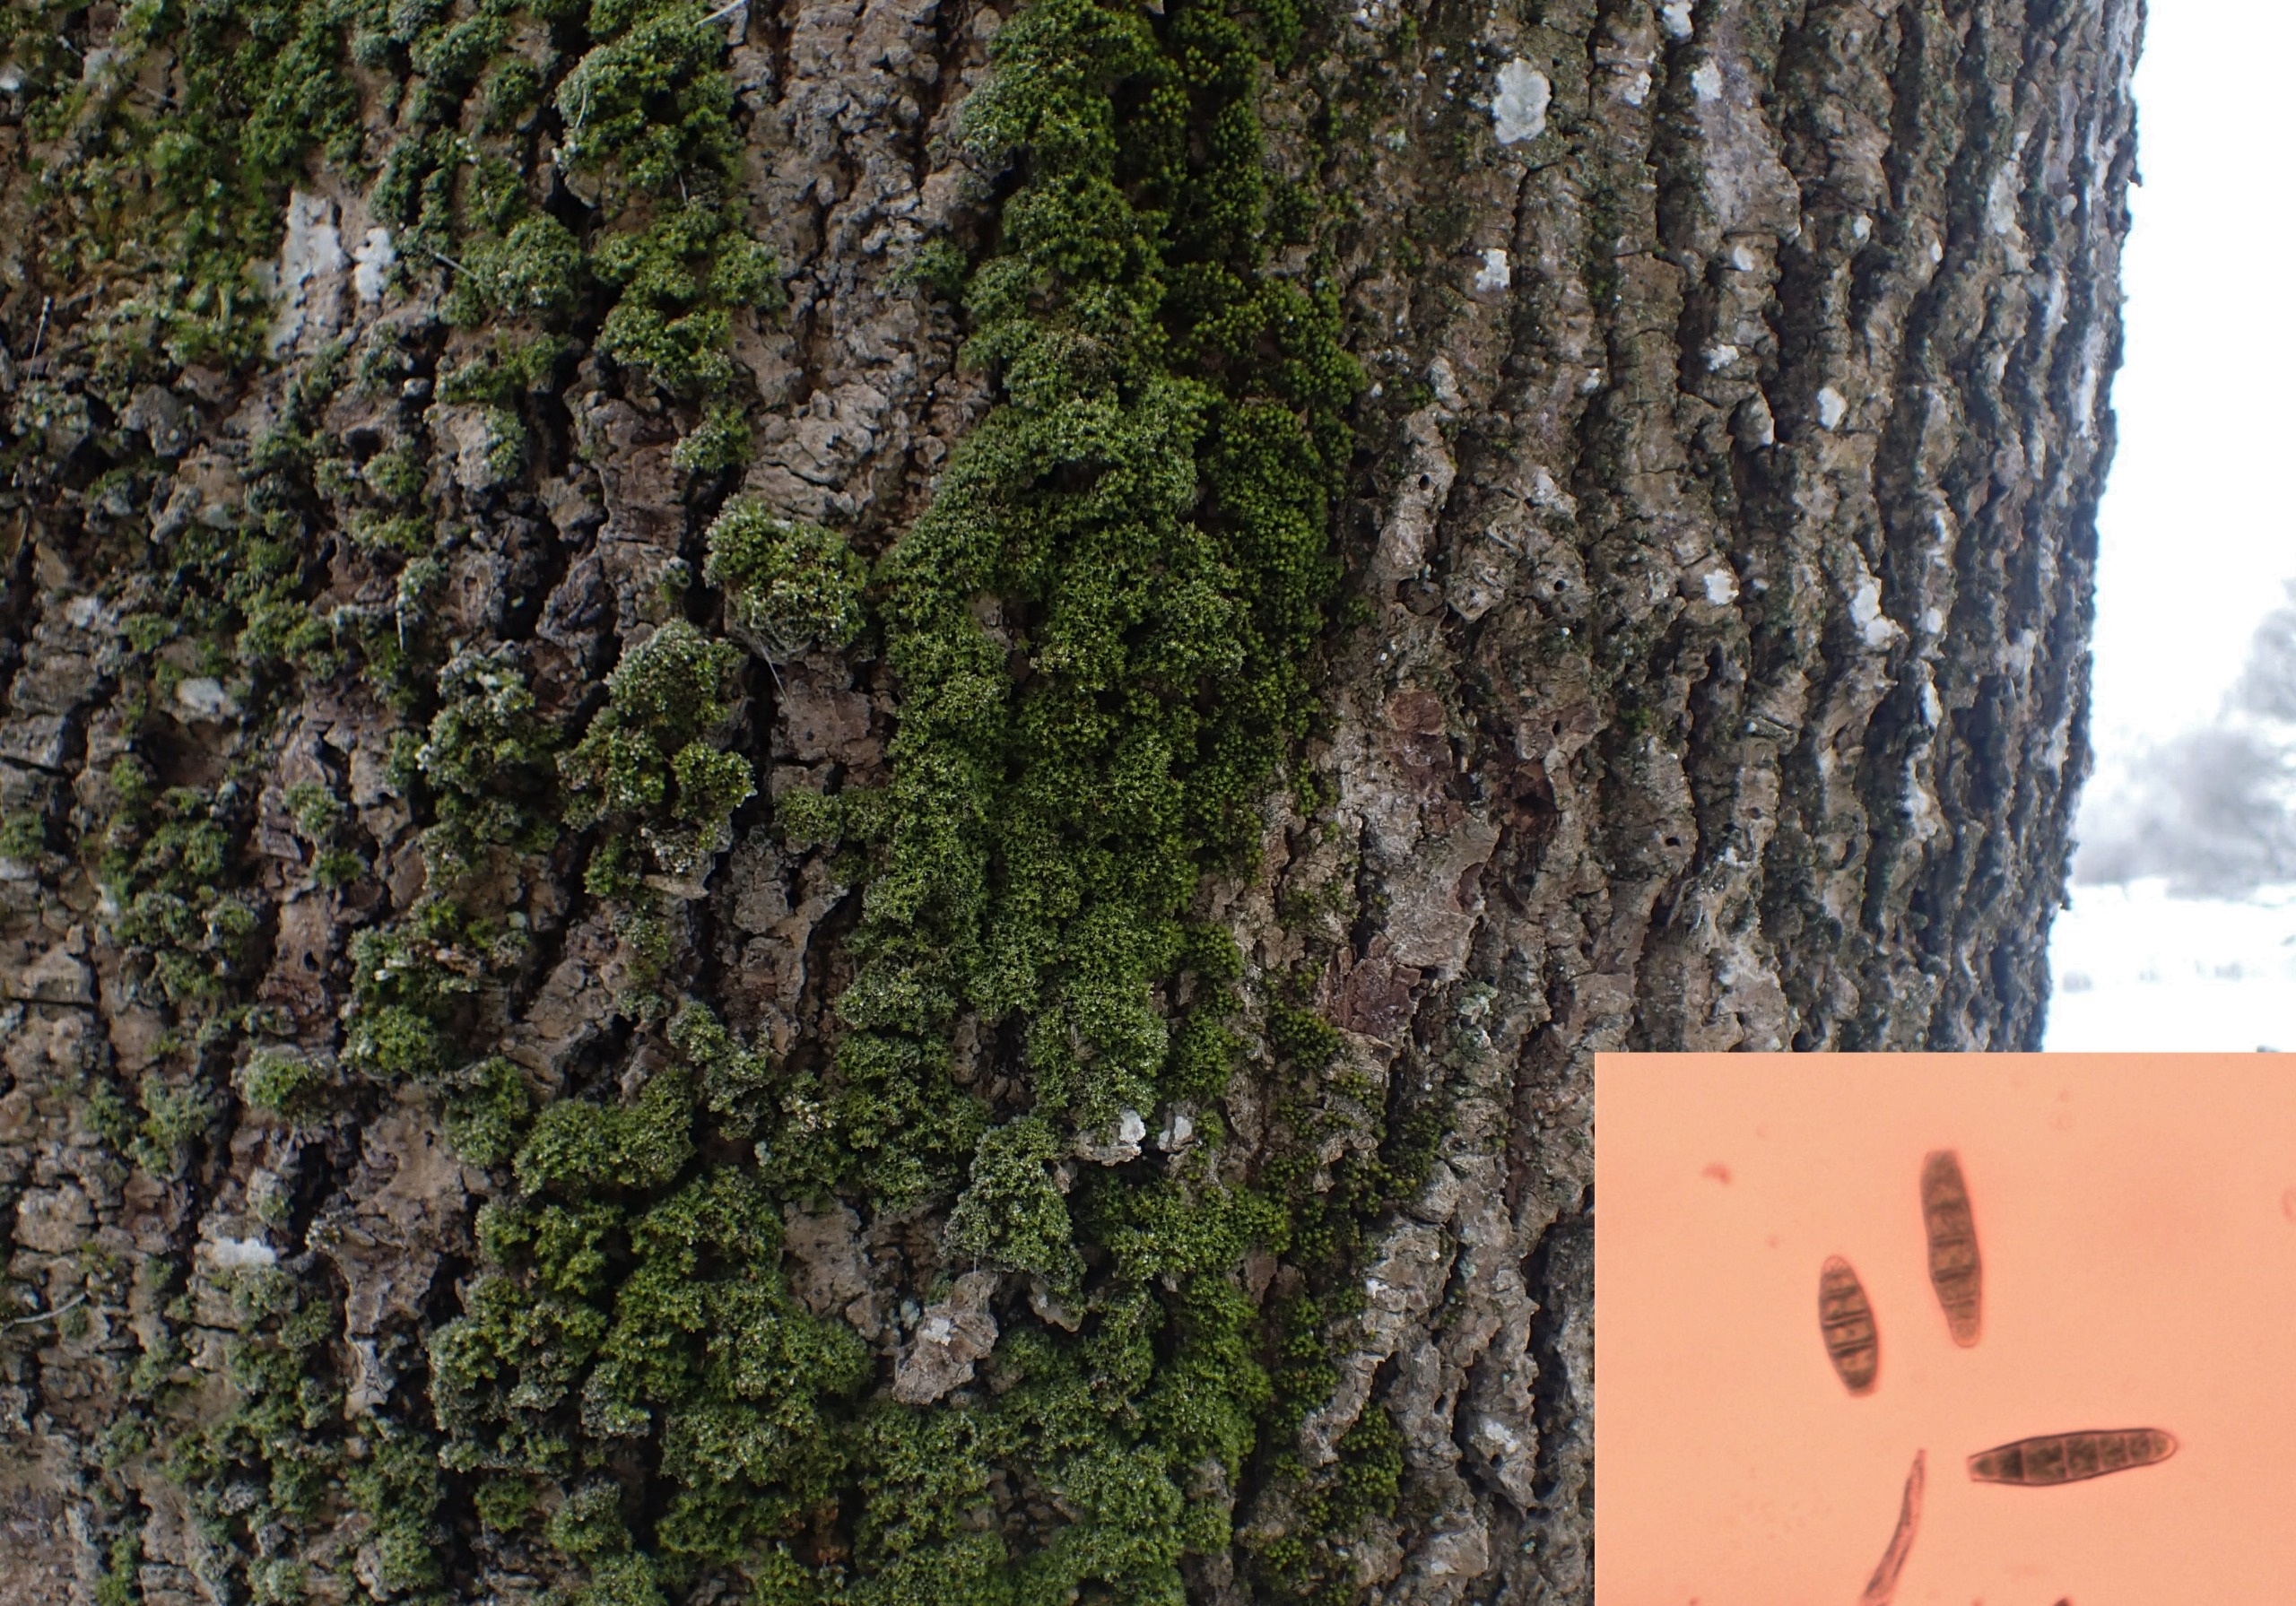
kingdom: Plantae
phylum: Bryophyta
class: Bryopsida
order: Orthotrichales
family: Orthotrichaceae
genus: Zygodon
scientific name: Zygodon conoideus
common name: Tand-køllemos
